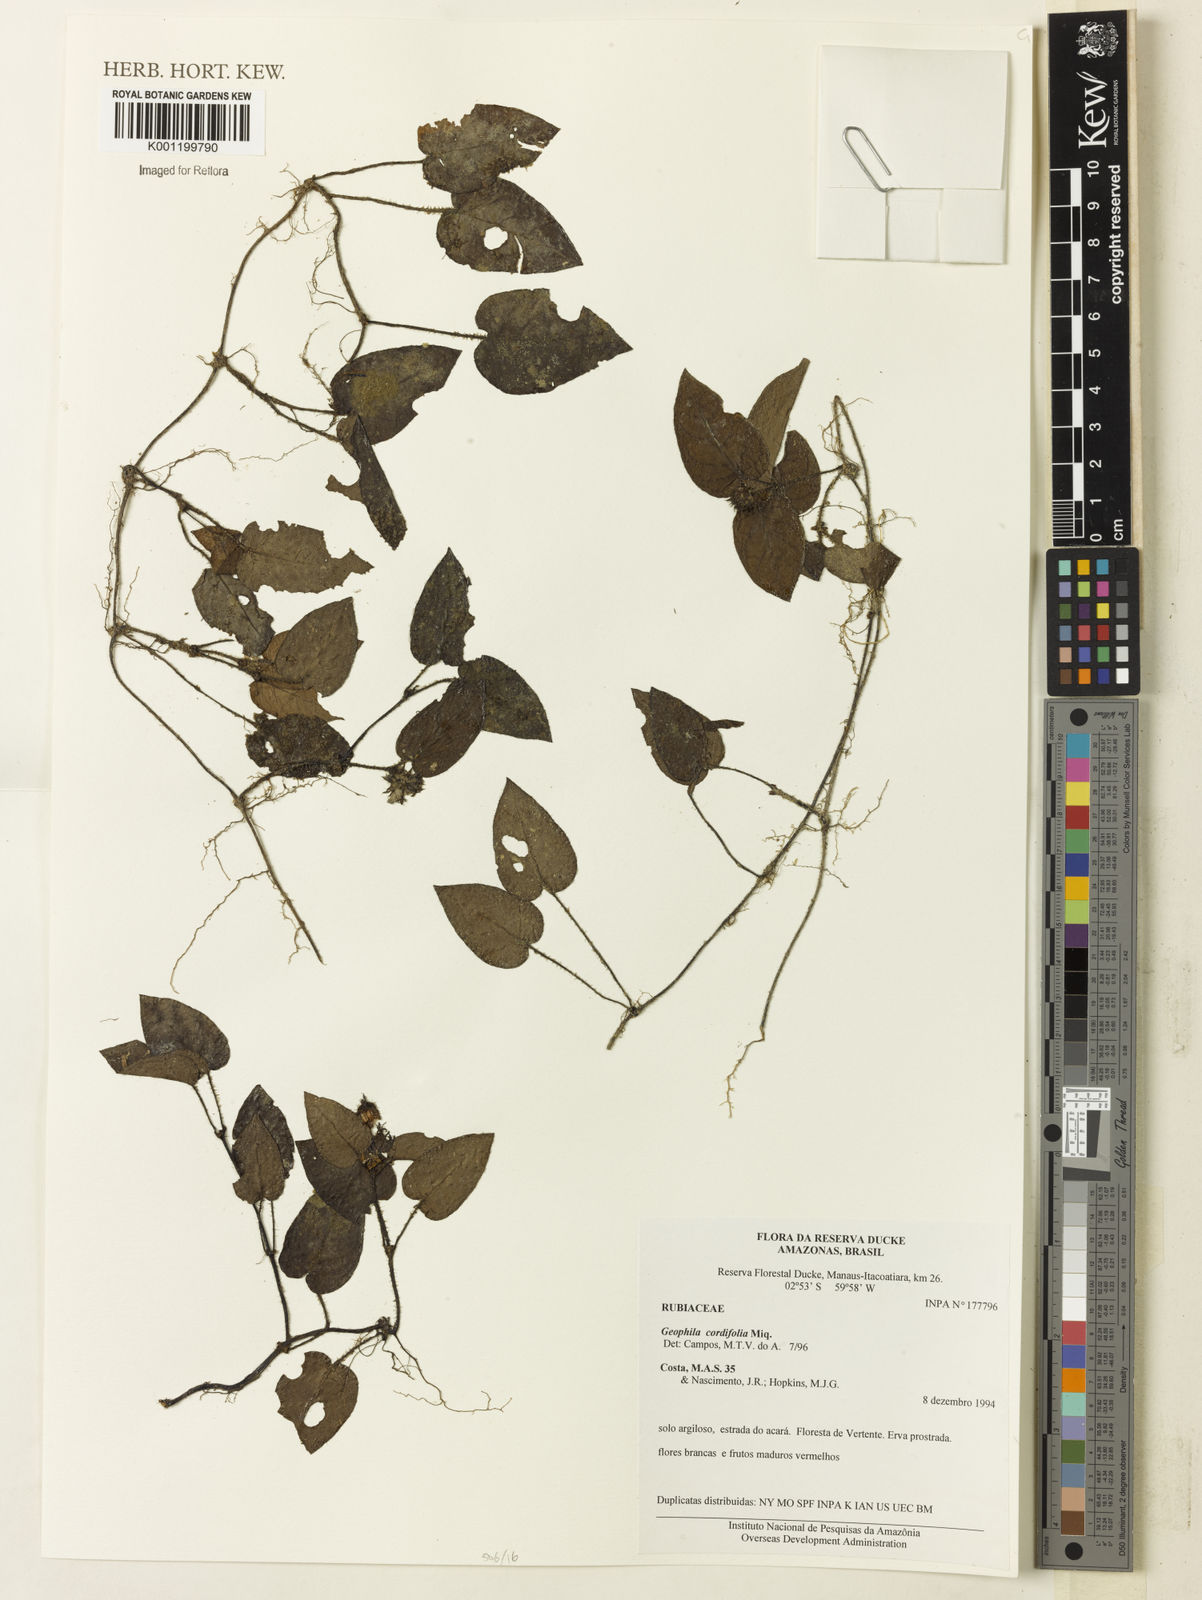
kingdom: Plantae
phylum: Tracheophyta
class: Magnoliopsida
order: Gentianales
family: Rubiaceae
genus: Geophila
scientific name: Geophila cordifolia
